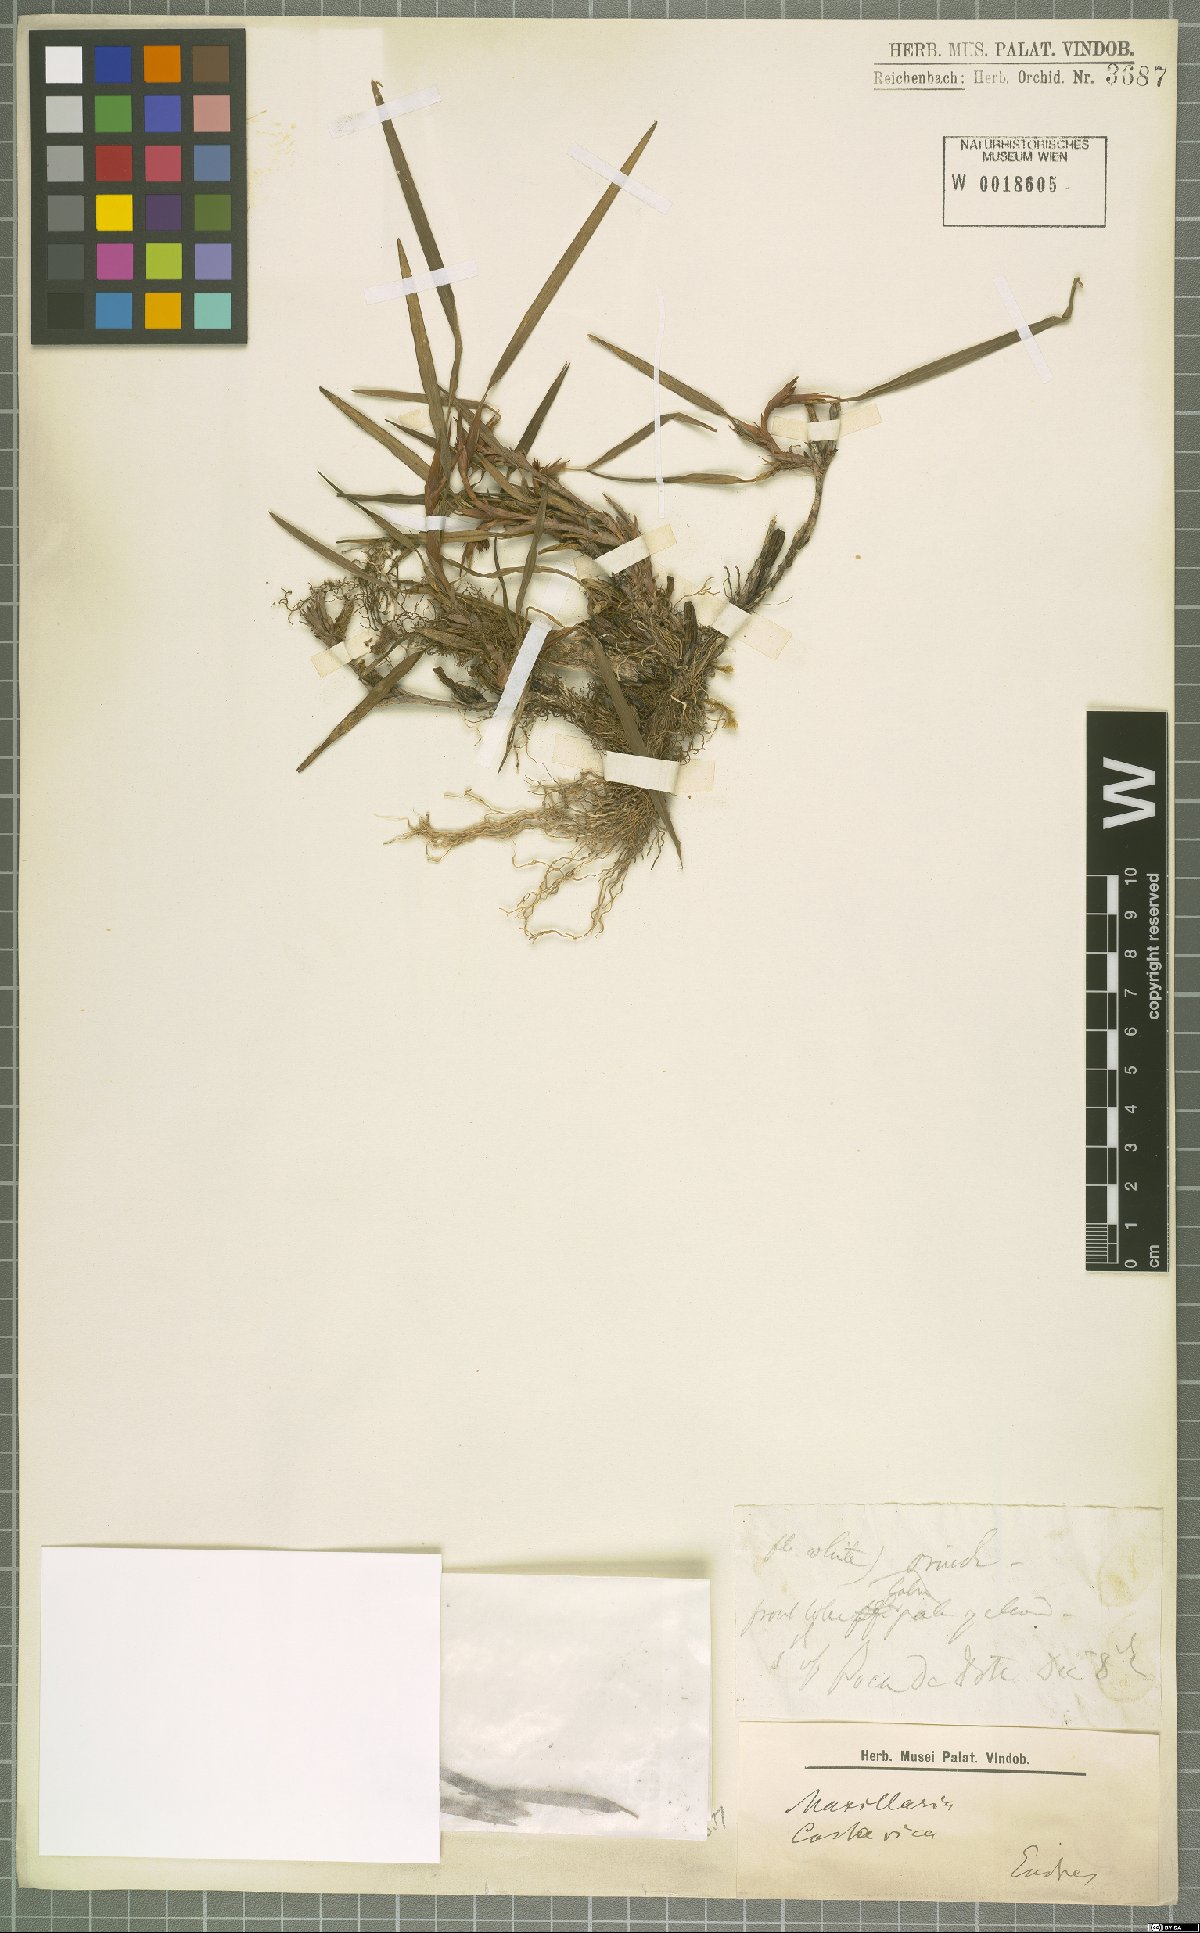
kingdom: Plantae
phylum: Tracheophyta
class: Liliopsida
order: Asparagales
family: Orchidaceae
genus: Maxillaria
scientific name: Maxillaria
